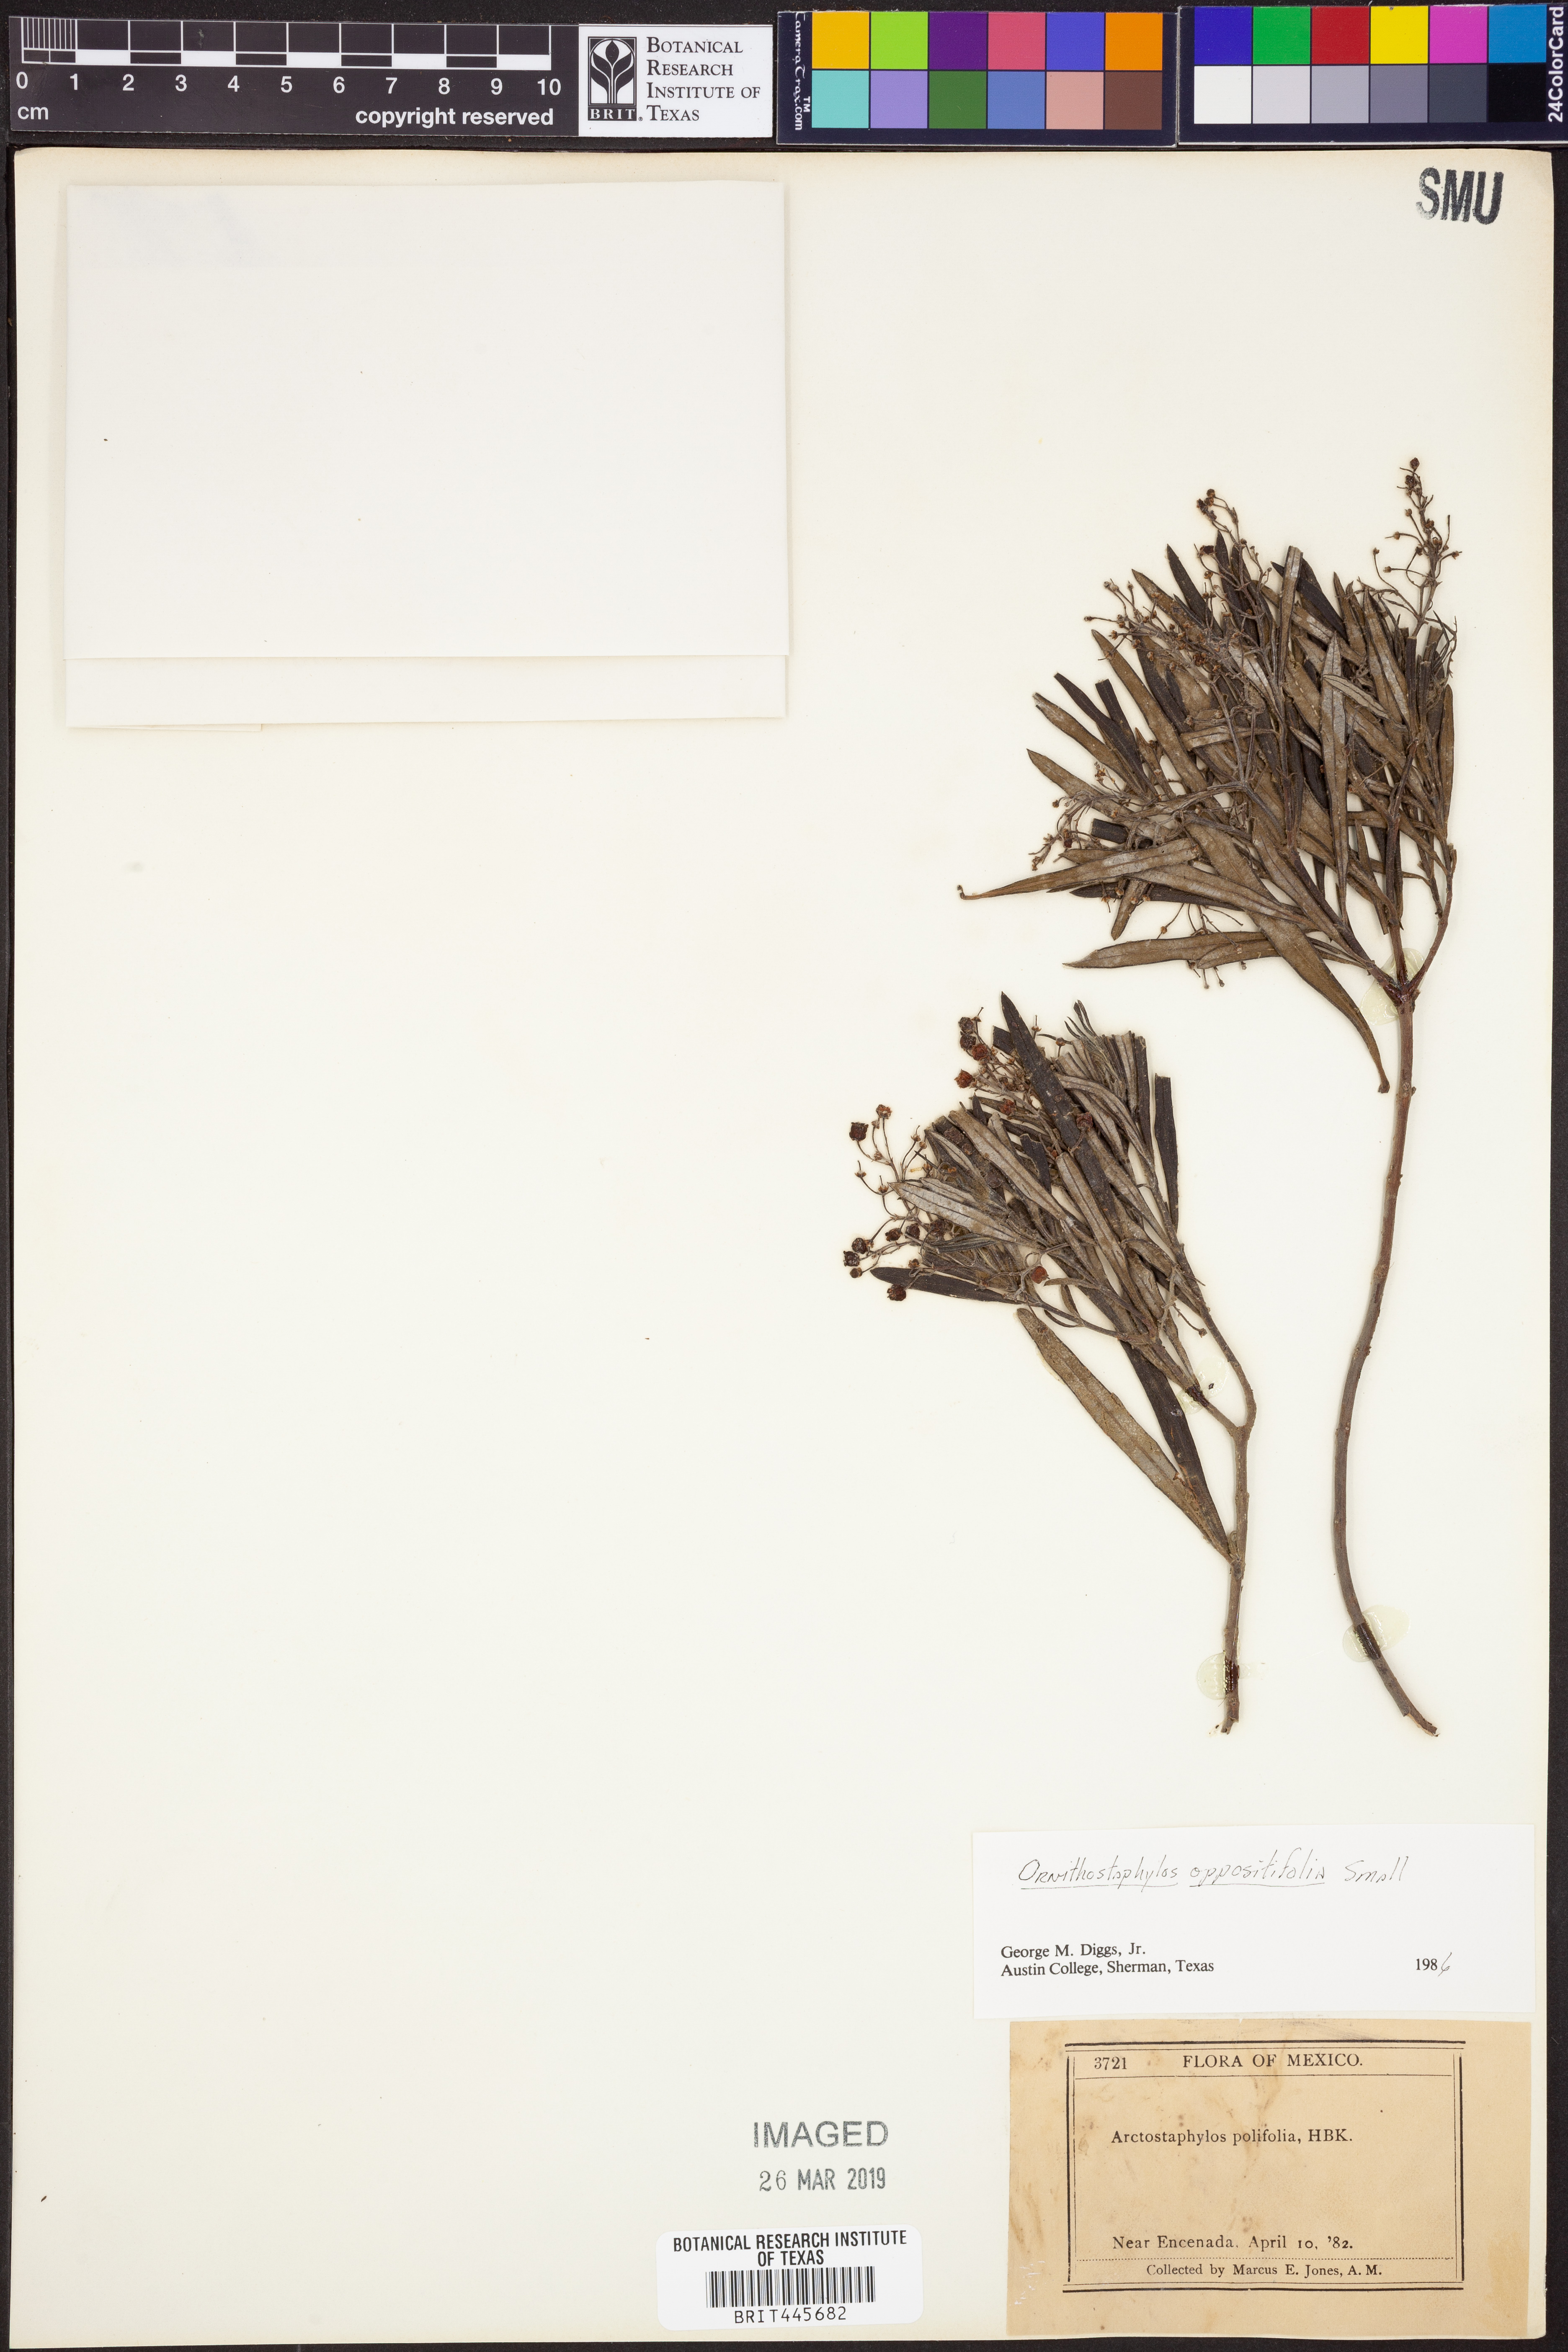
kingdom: Plantae
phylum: Tracheophyta
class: Magnoliopsida
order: Ericales
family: Ericaceae
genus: Ornithostaphylos
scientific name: Ornithostaphylos oppositifolia
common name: Baja california birdbush
